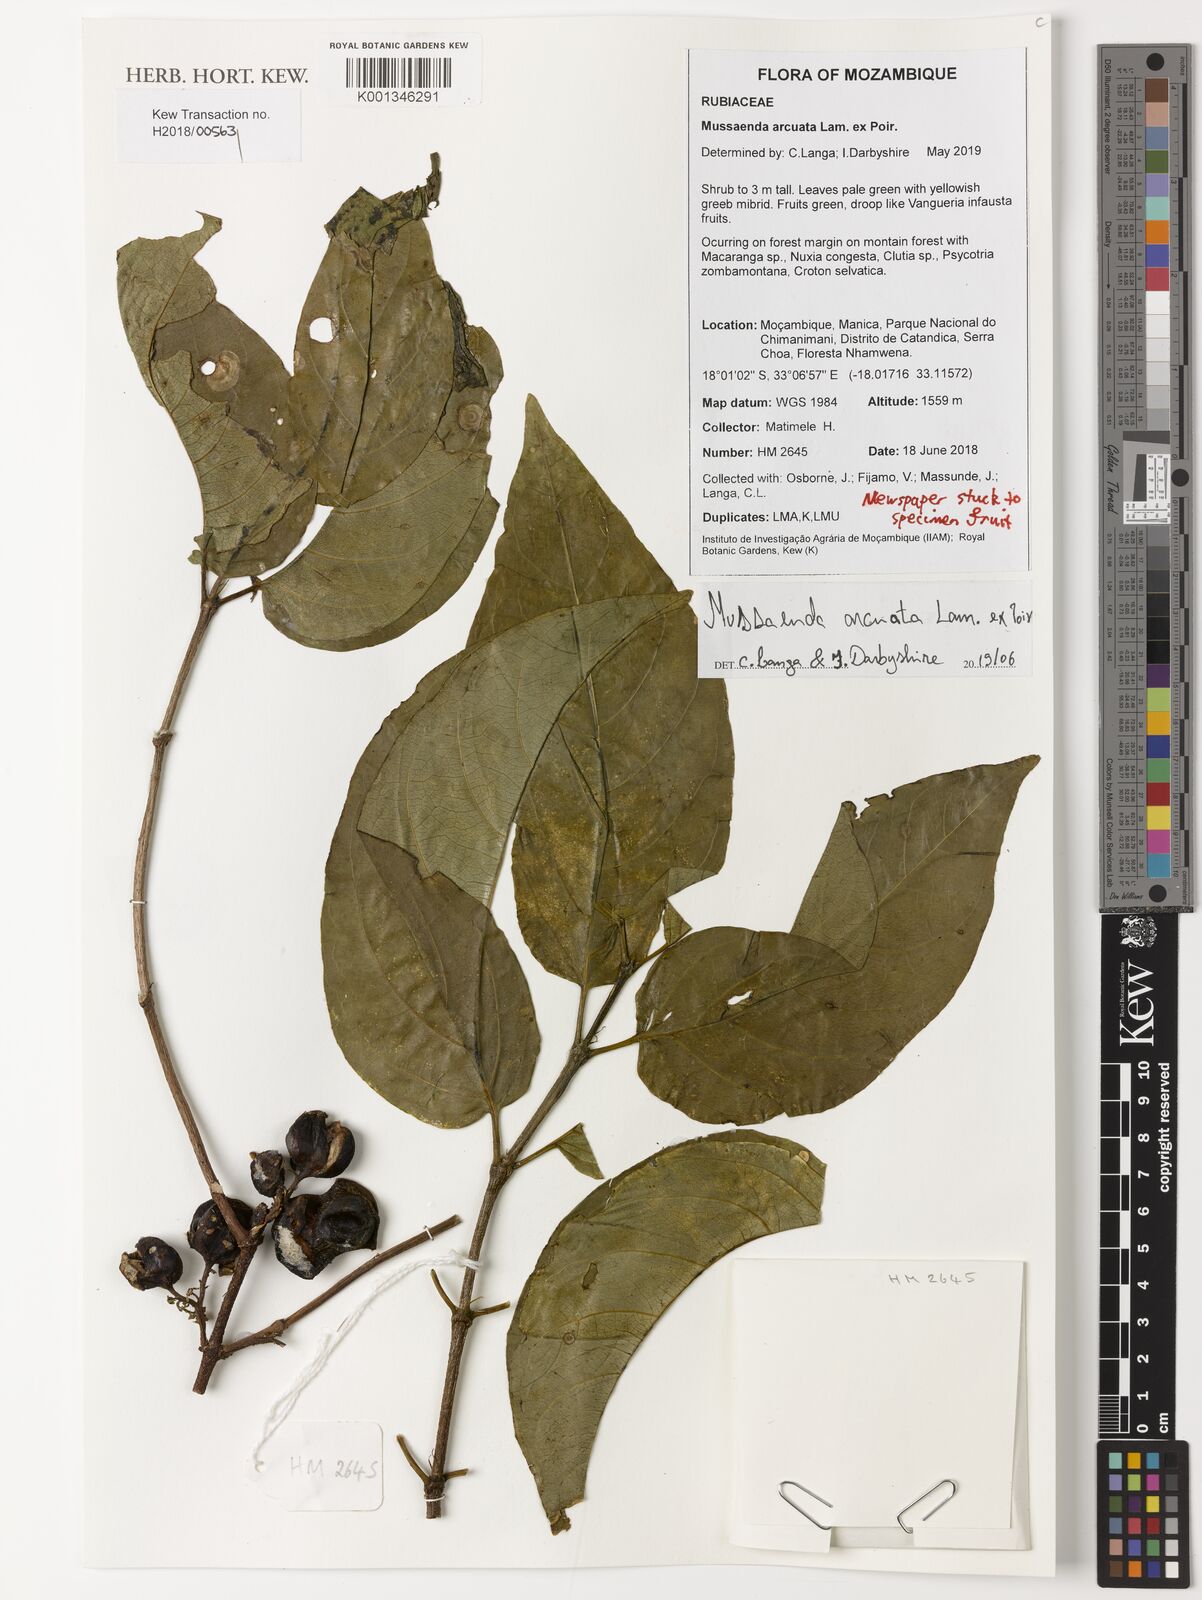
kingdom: Plantae
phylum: Tracheophyta
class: Magnoliopsida
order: Gentianales
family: Rubiaceae
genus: Mussaenda
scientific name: Mussaenda arcuata
